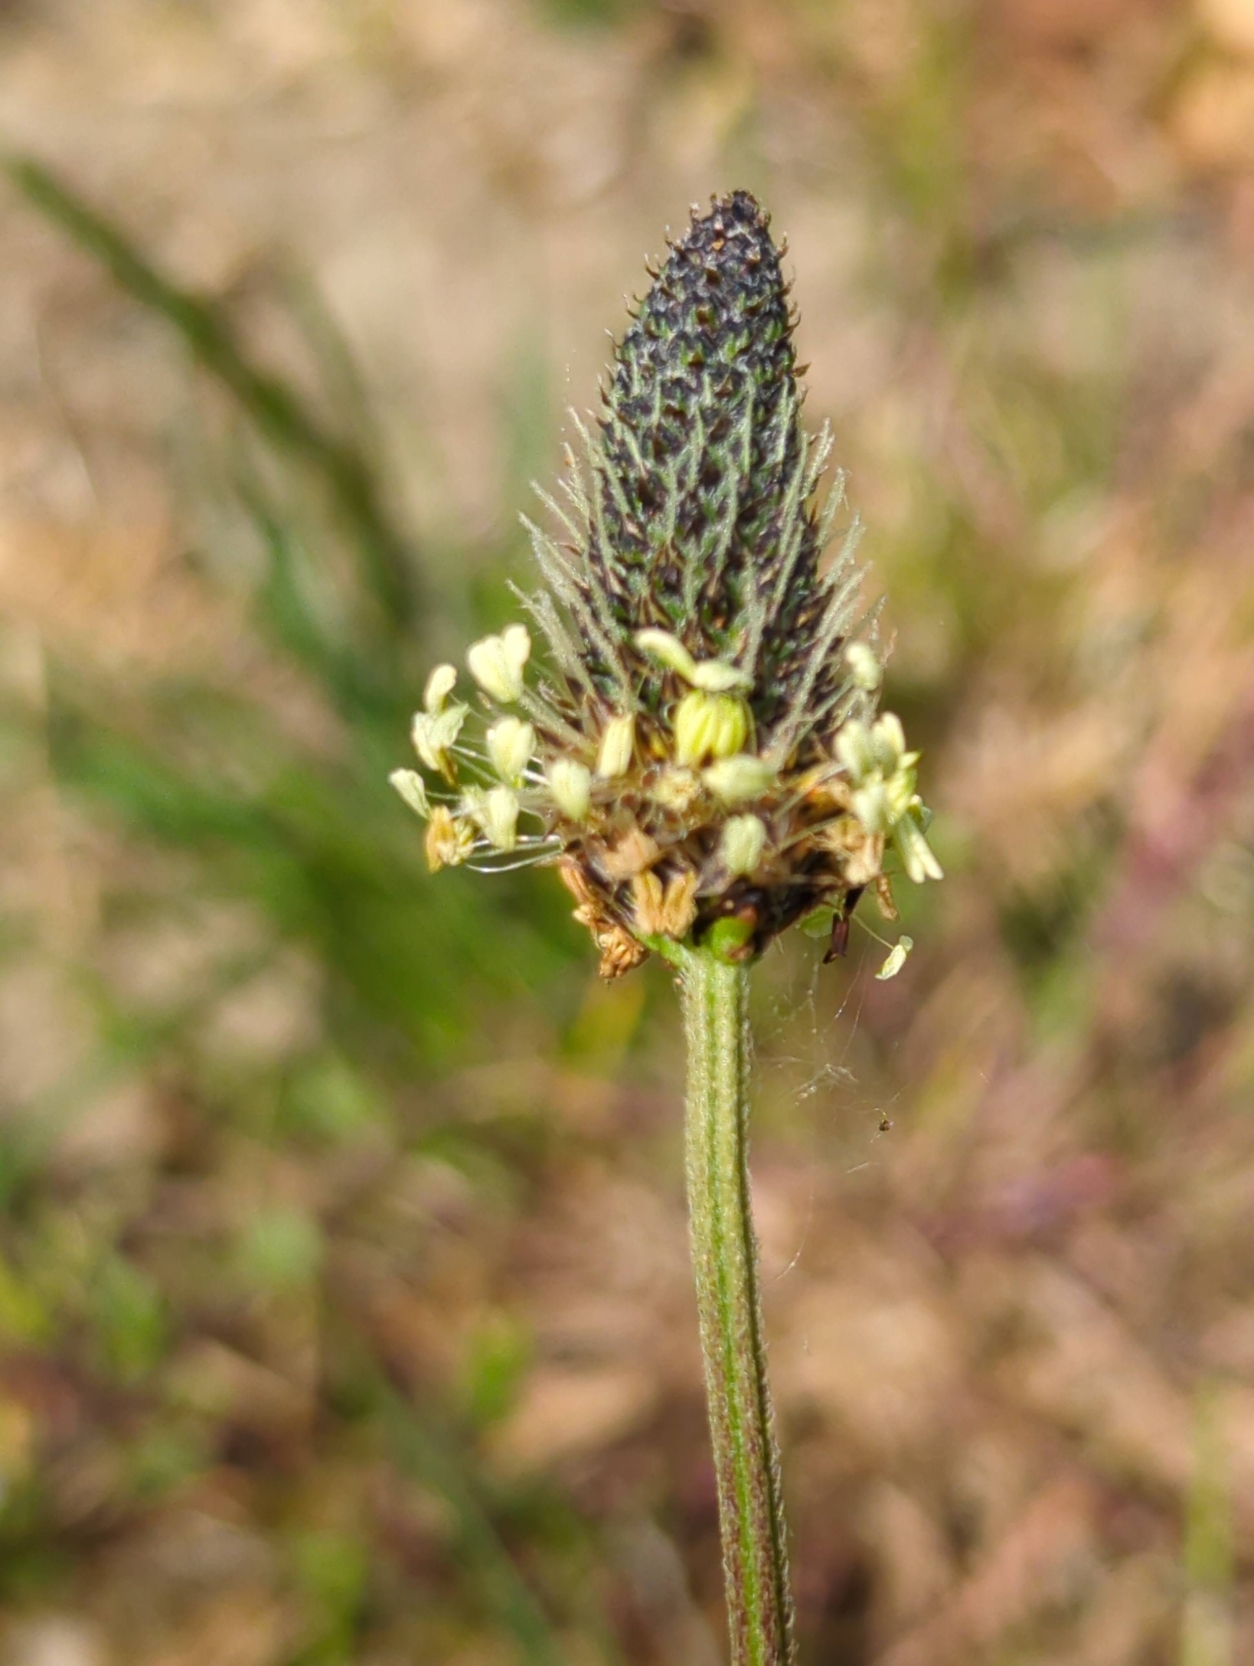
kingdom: Plantae
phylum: Tracheophyta
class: Magnoliopsida
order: Lamiales
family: Plantaginaceae
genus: Plantago
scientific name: Plantago lanceolata
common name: Lancet-vejbred
